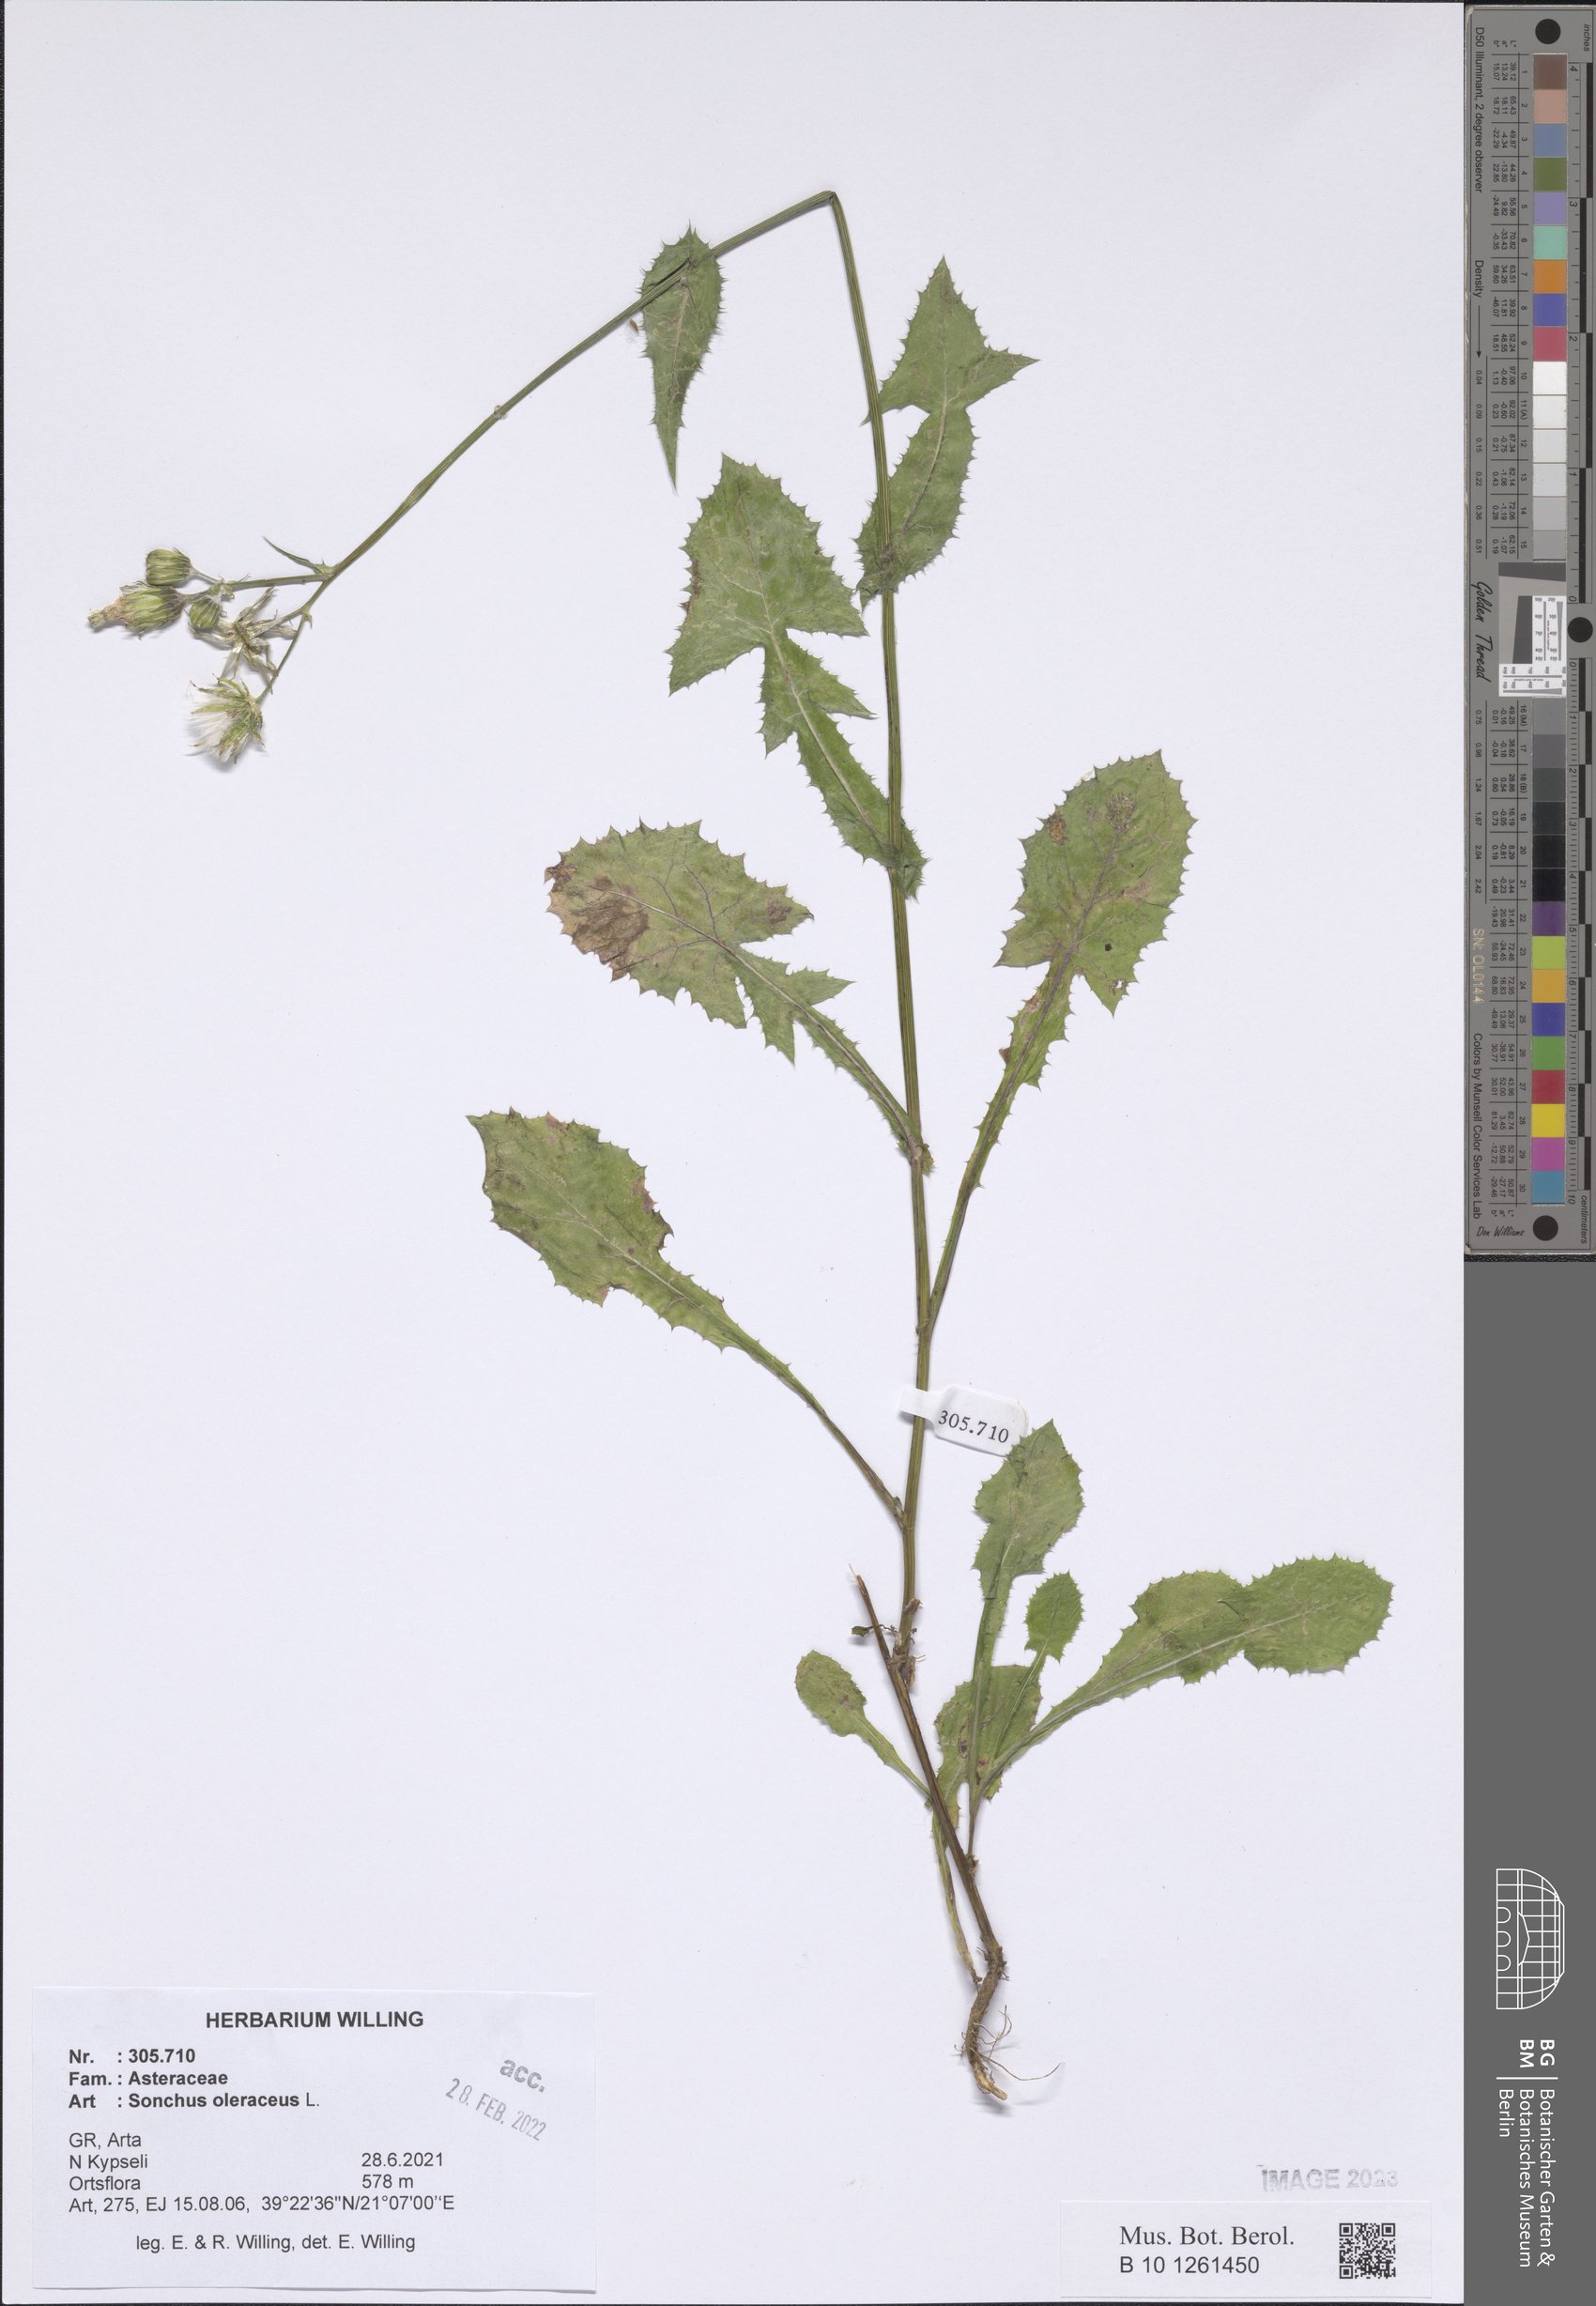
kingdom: Plantae
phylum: Tracheophyta
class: Magnoliopsida
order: Asterales
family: Asteraceae
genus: Sonchus
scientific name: Sonchus oleraceus
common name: Common sowthistle
